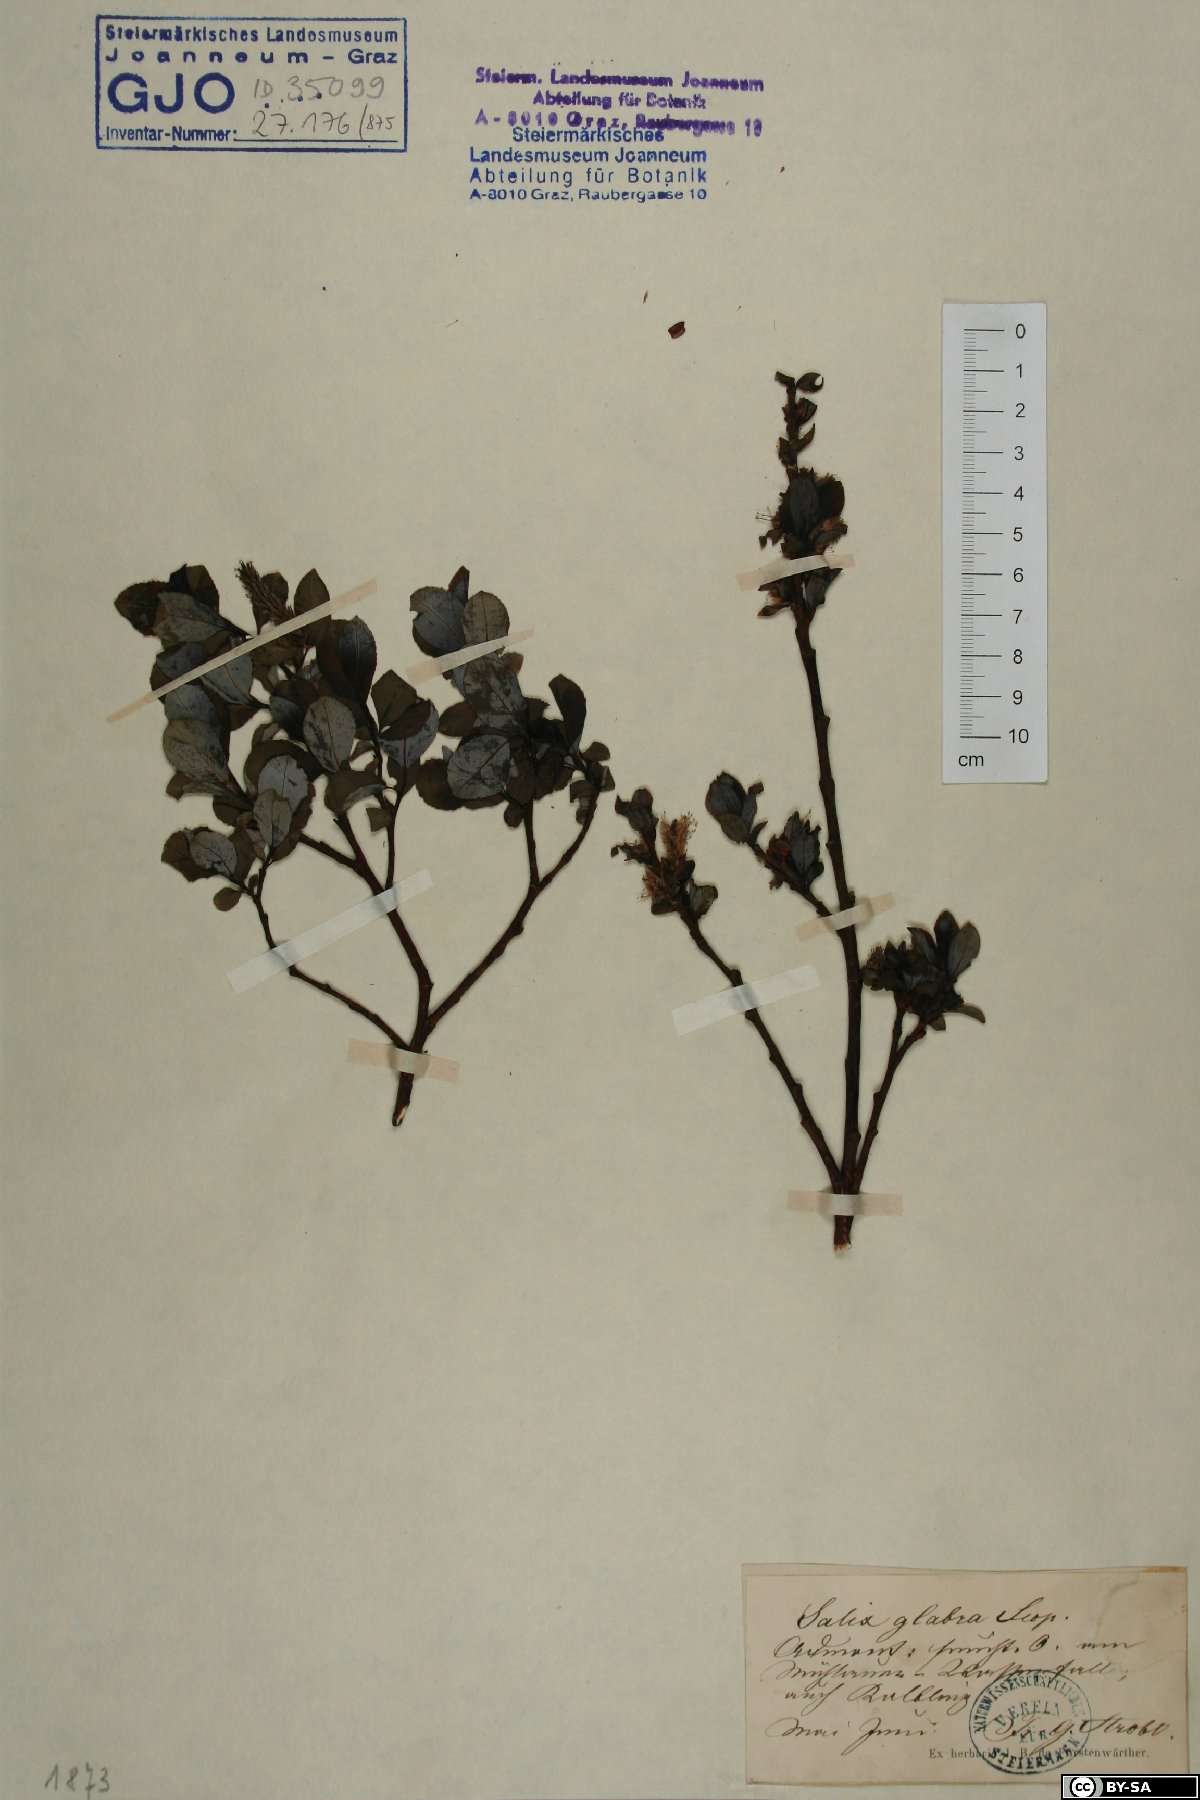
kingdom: Plantae
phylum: Tracheophyta
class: Magnoliopsida
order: Malpighiales
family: Salicaceae
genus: Salix
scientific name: Salix glabra
